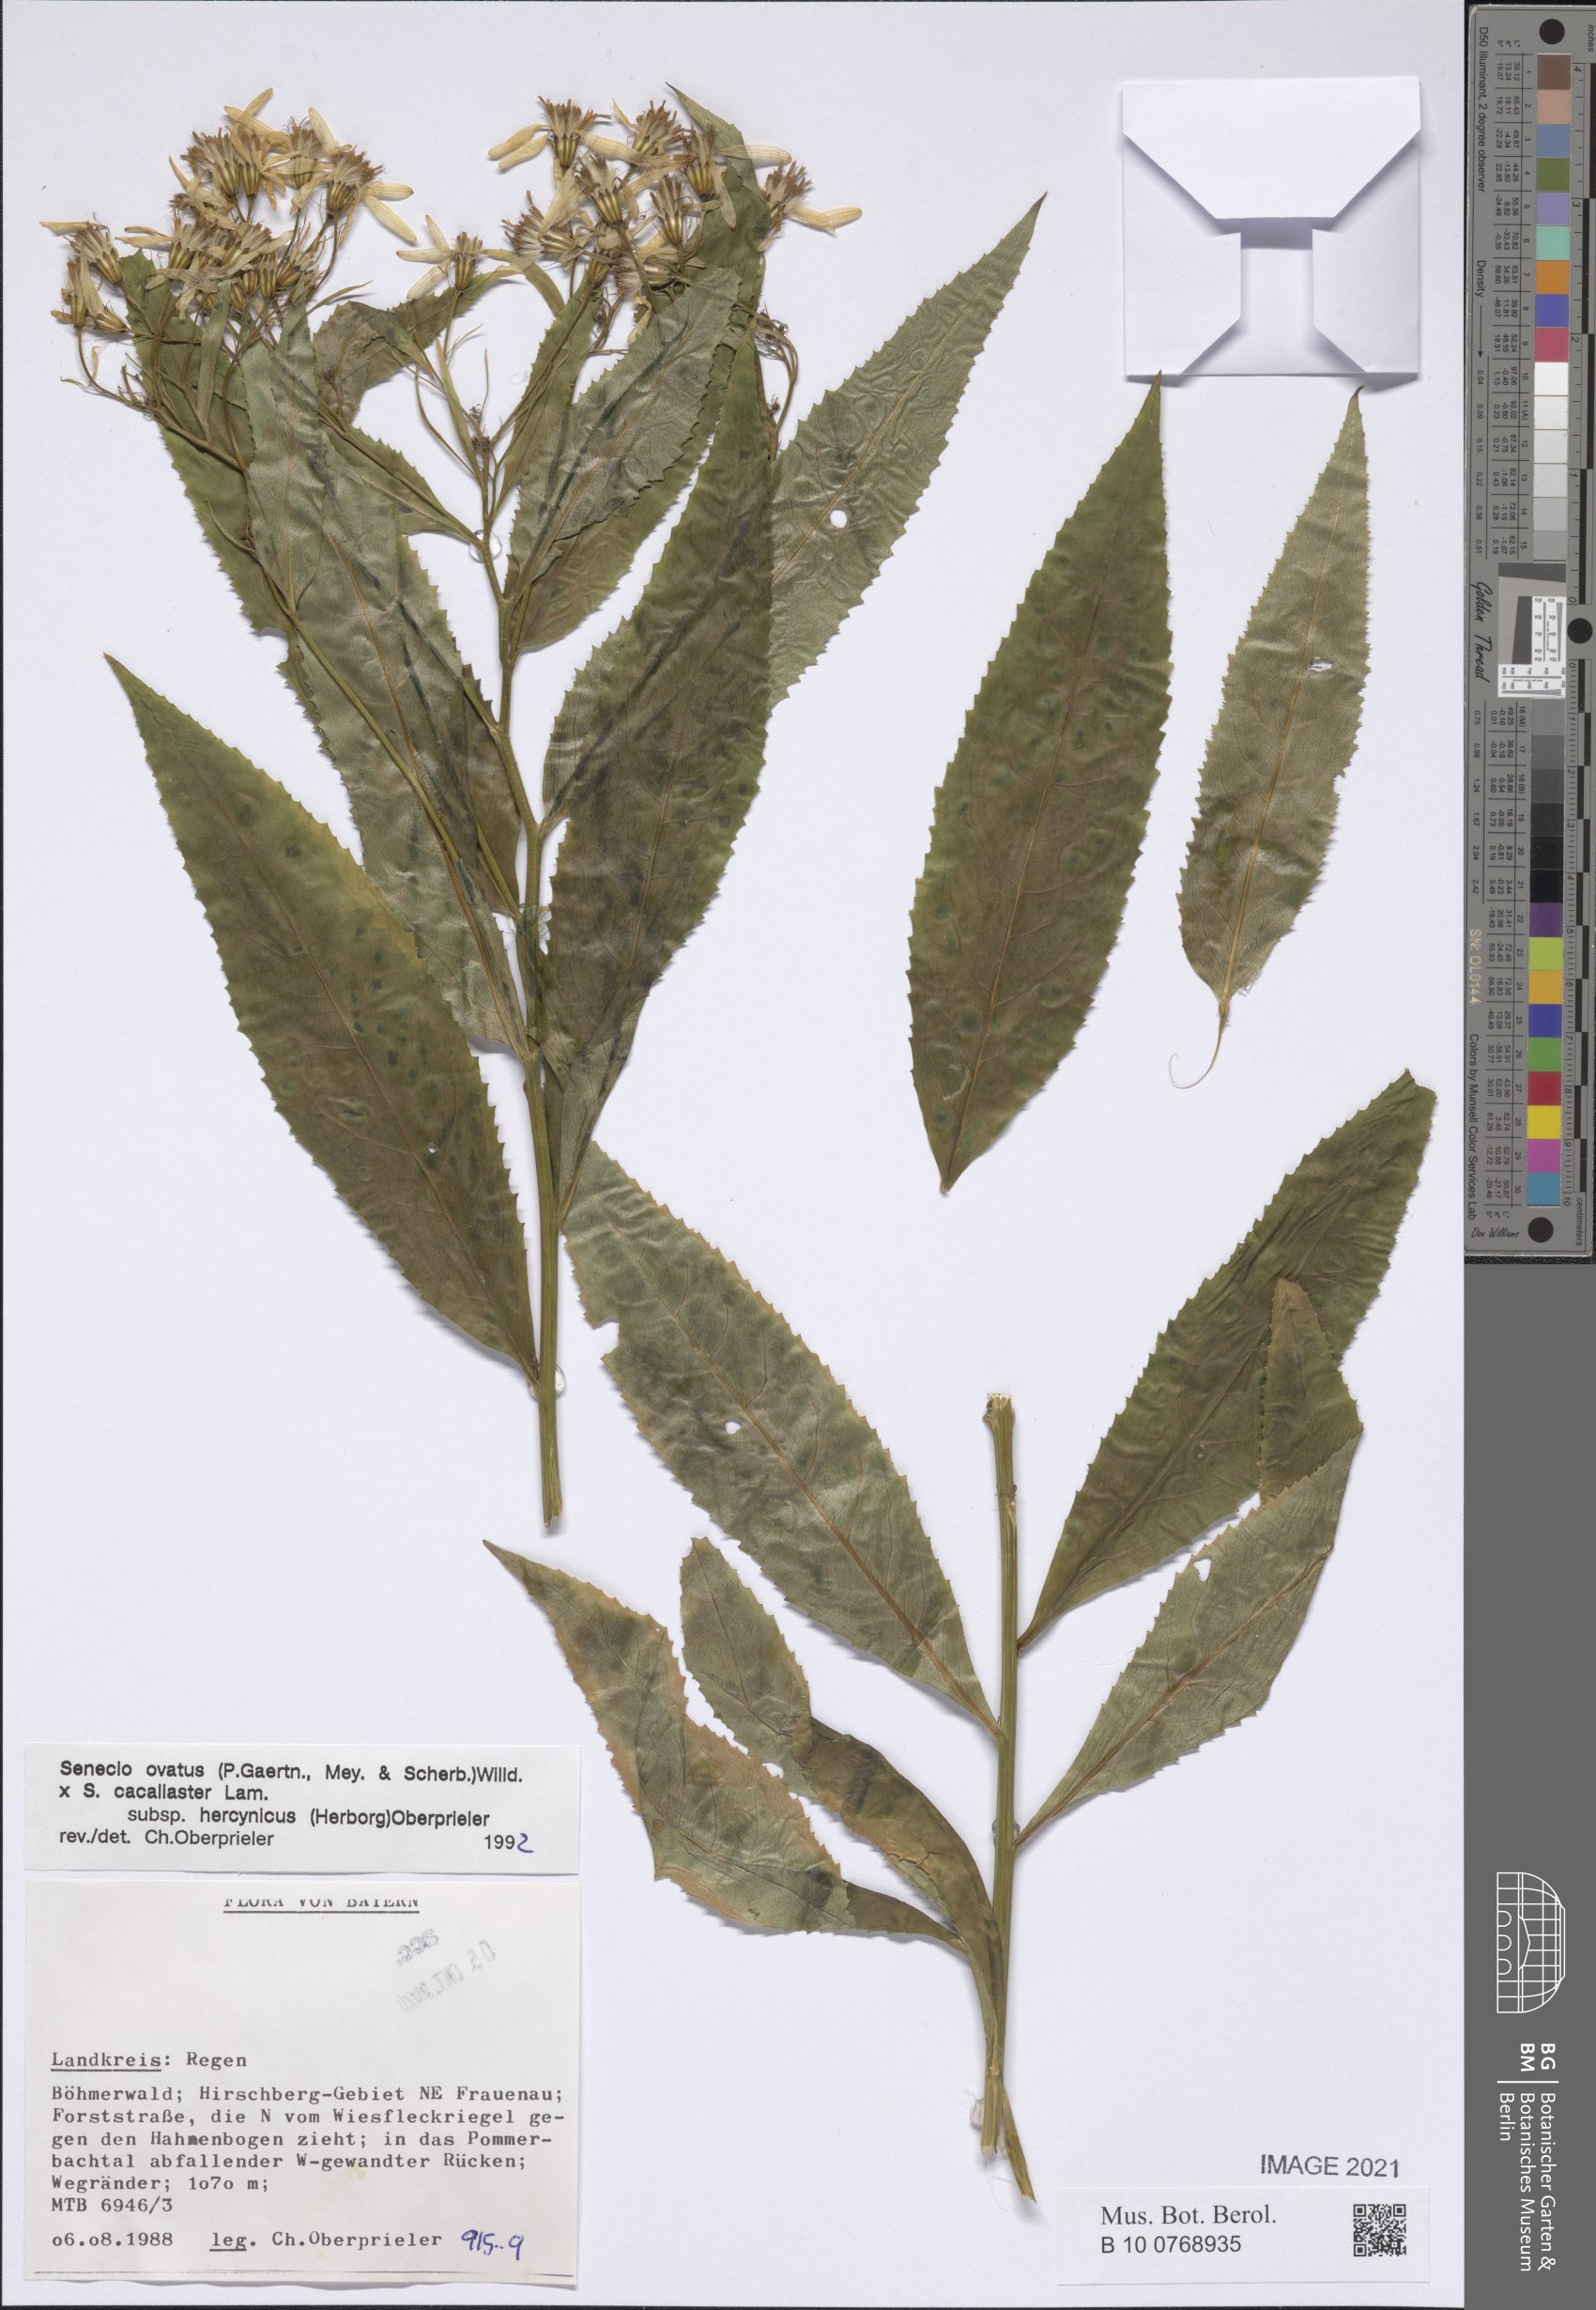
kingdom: Plantae
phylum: Tracheophyta
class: Magnoliopsida
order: Asterales
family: Asteraceae
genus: Senecio
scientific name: Senecio ovatus
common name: Wood ragwort
